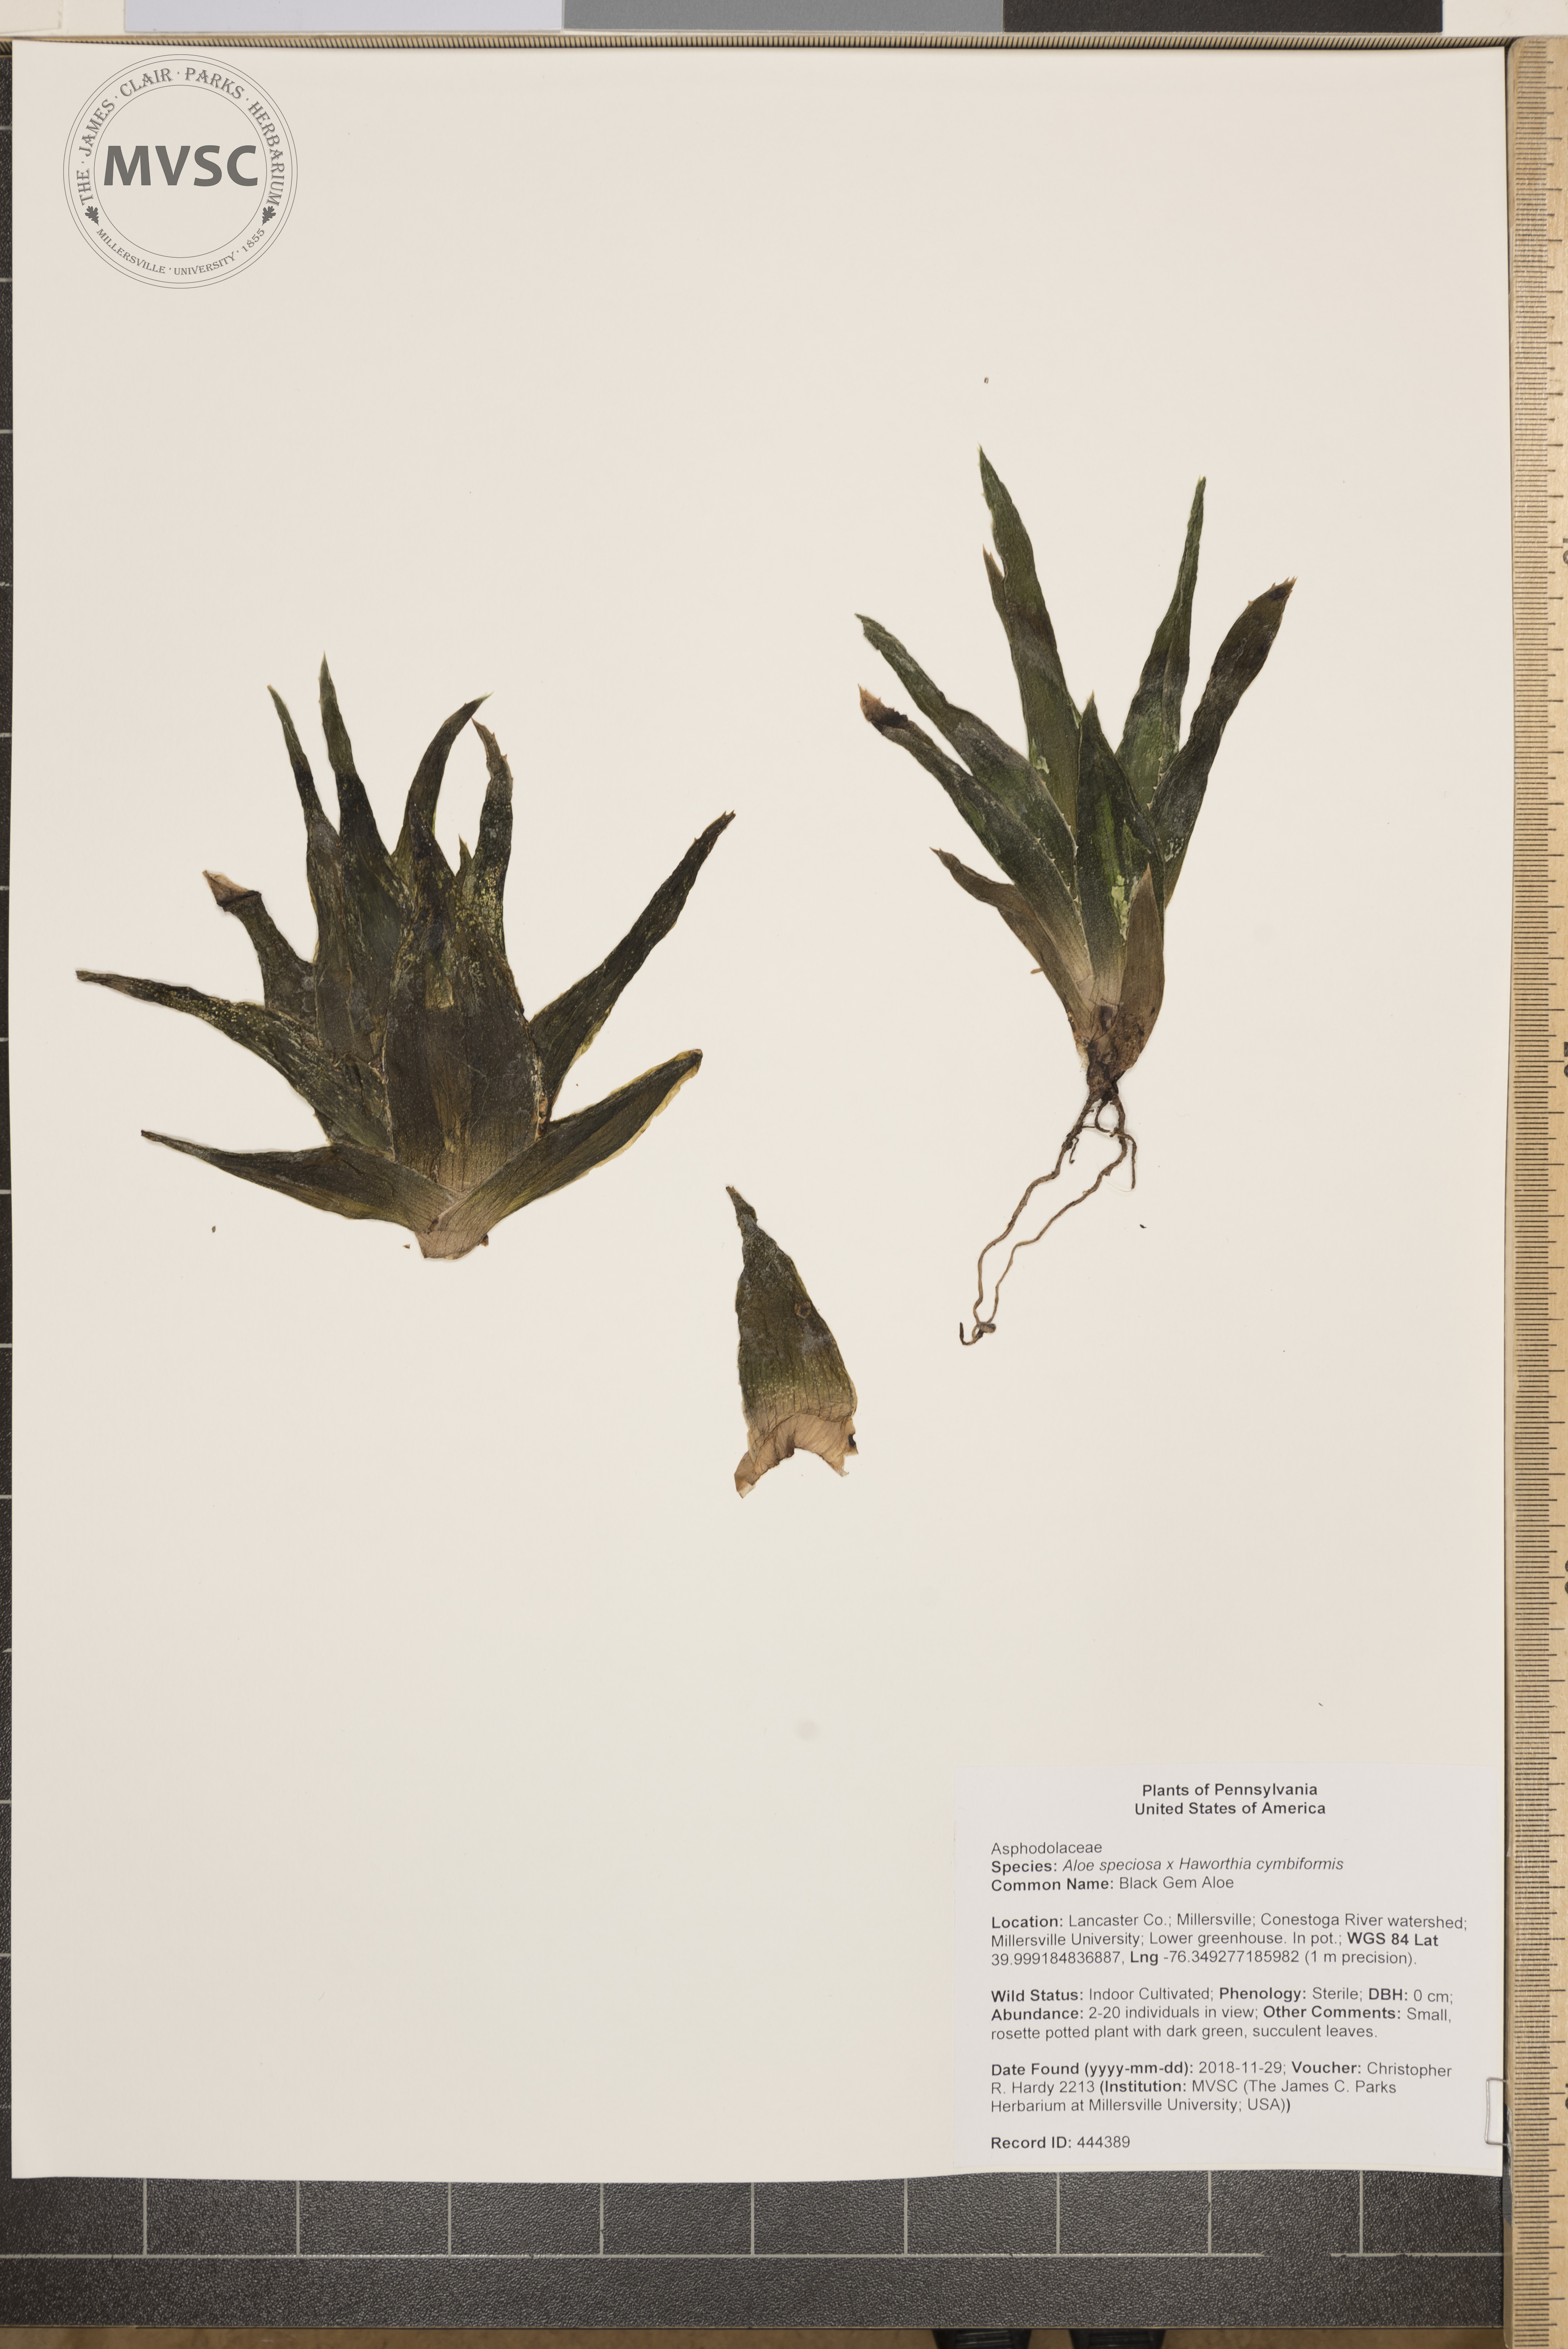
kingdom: Plantae
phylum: Tracheophyta
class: Liliopsida
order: Asparagales
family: Asphodelaceae
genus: Aloe
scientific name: Aloe
